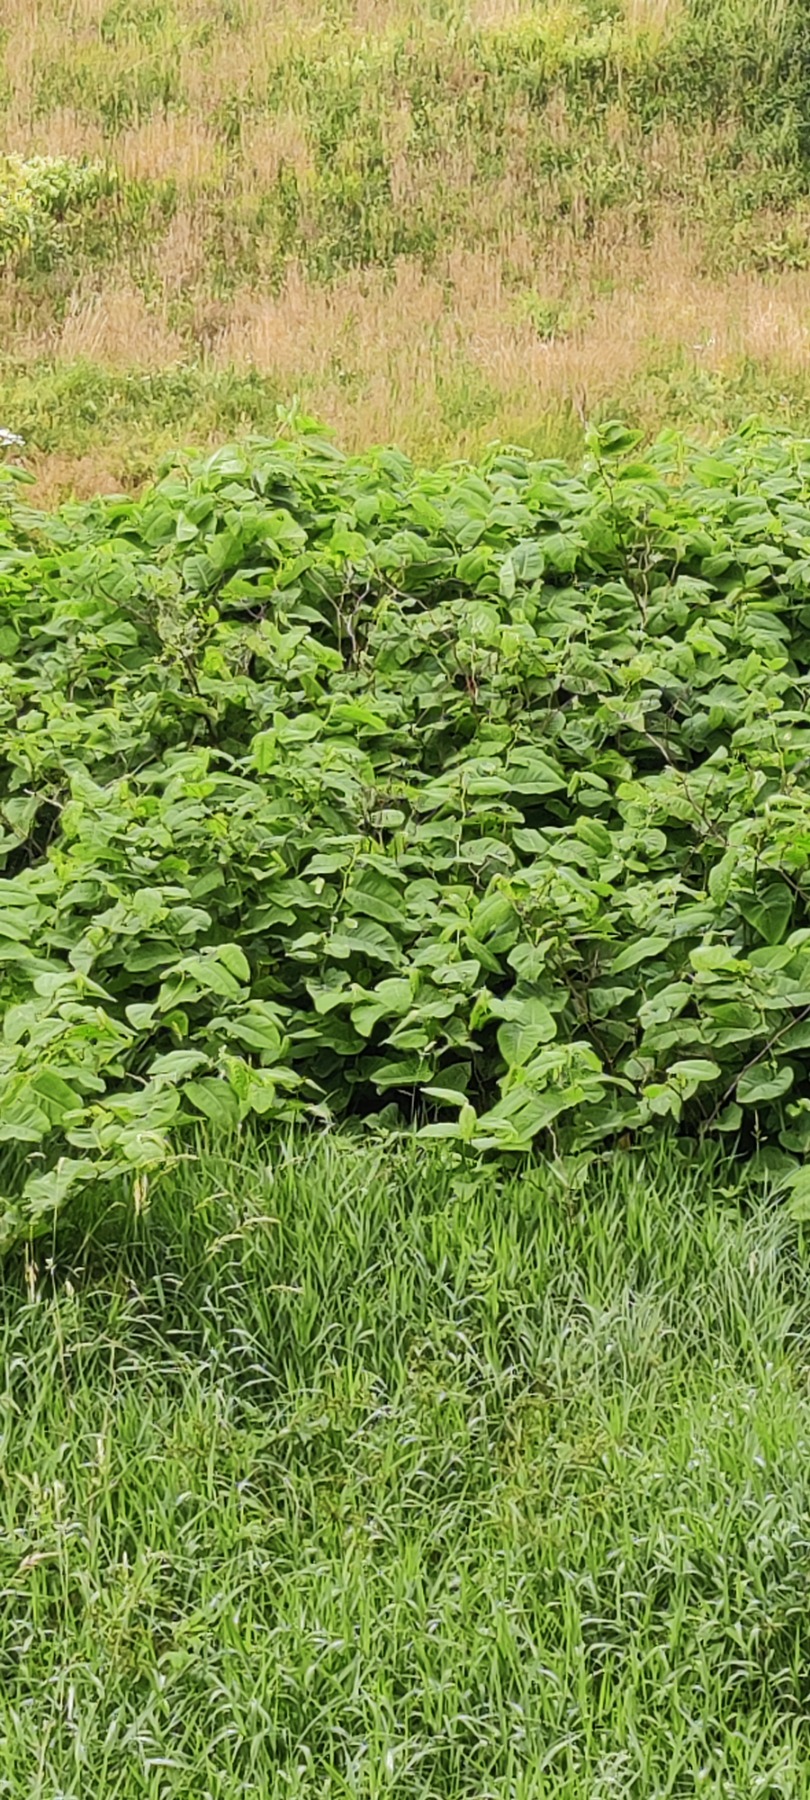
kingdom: Plantae
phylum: Tracheophyta
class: Magnoliopsida
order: Caryophyllales
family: Polygonaceae
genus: Reynoutria
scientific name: Reynoutria sachalinensis
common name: Kæmpe-pileurt
